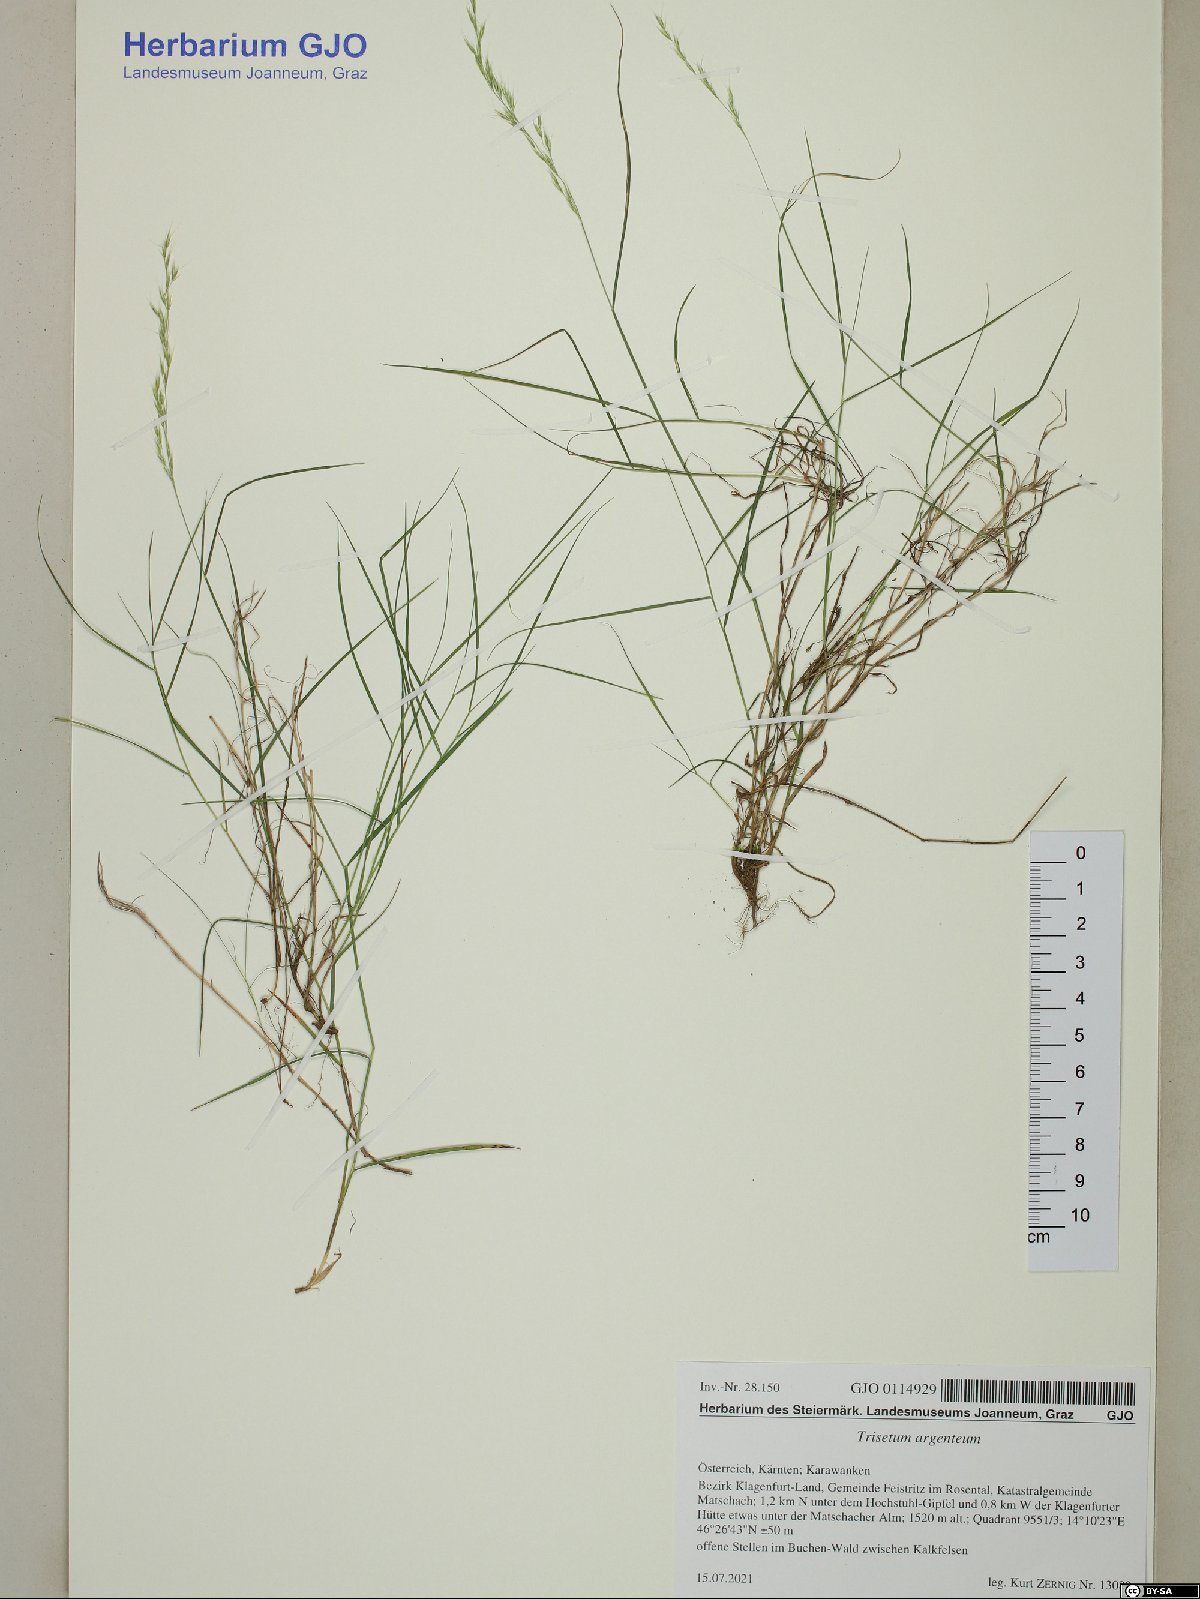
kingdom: Plantae
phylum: Tracheophyta
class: Liliopsida
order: Poales
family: Poaceae
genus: Trisetum
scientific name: Trisetum argenteum
